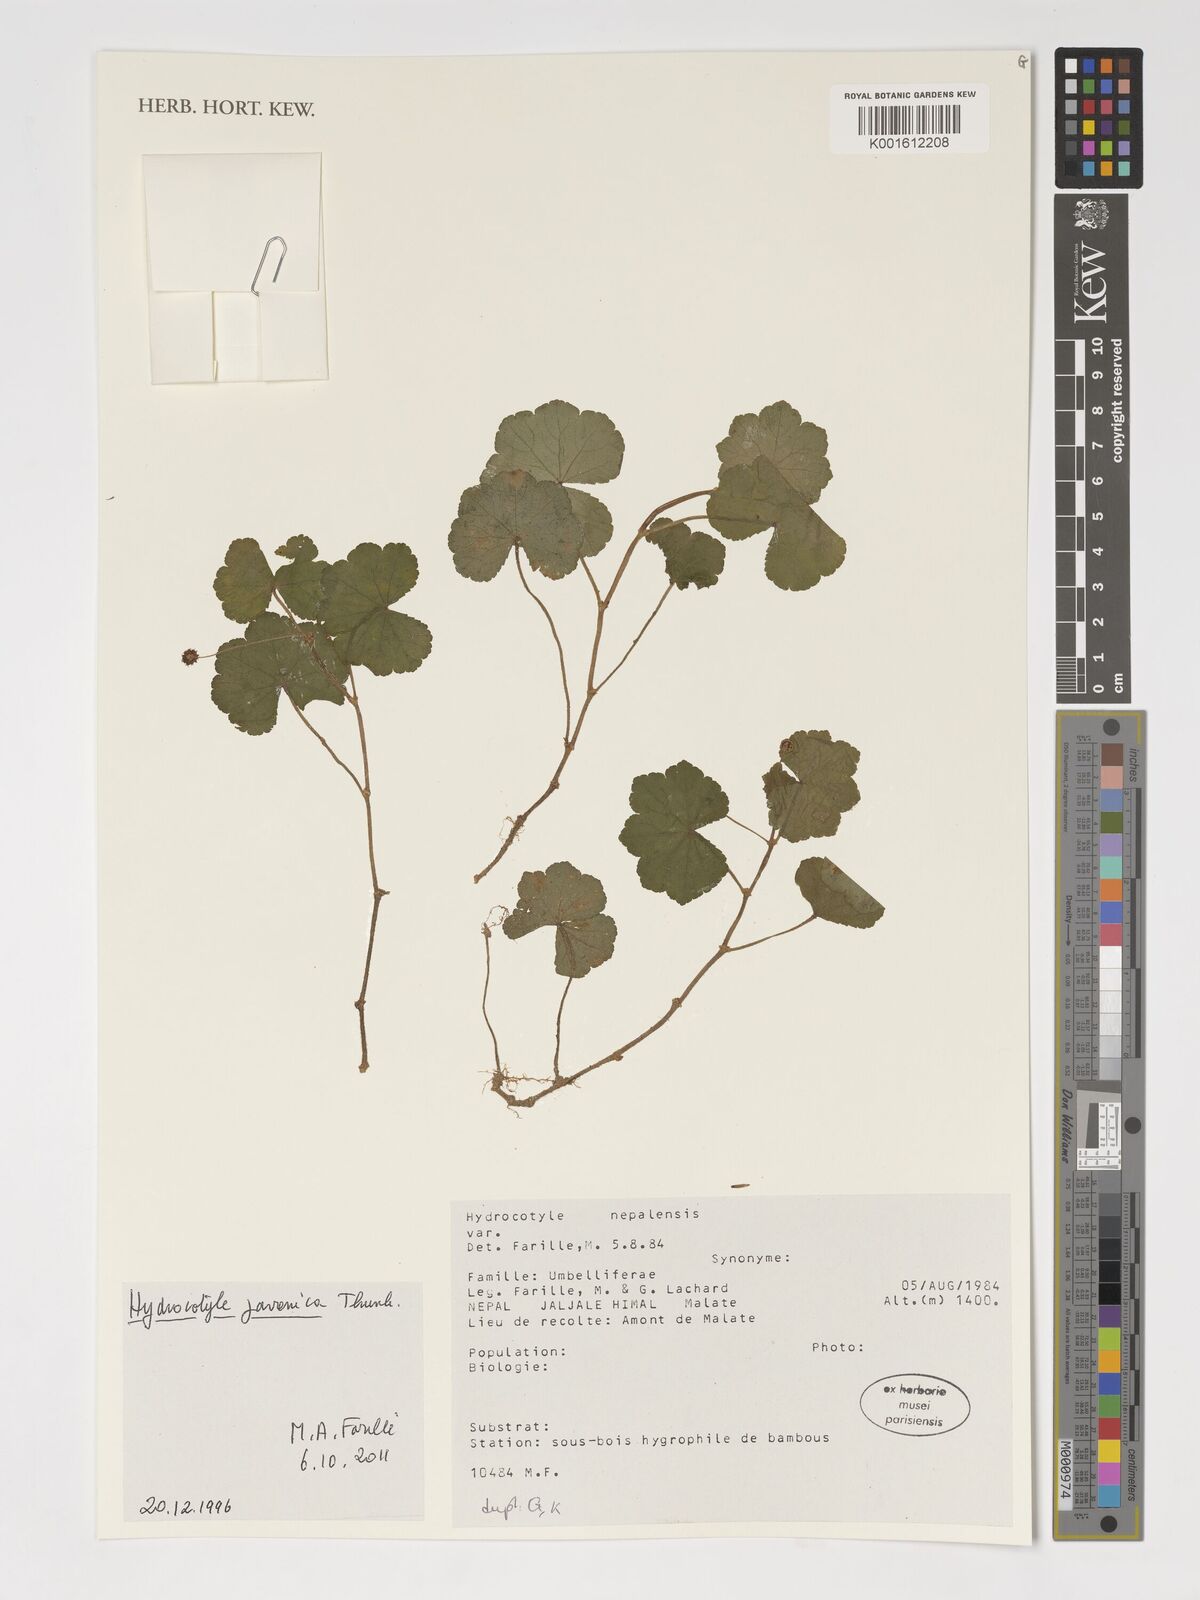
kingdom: Plantae
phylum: Tracheophyta
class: Magnoliopsida
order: Apiales
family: Araliaceae
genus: Hydrocotyle
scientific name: Hydrocotyle javanica
